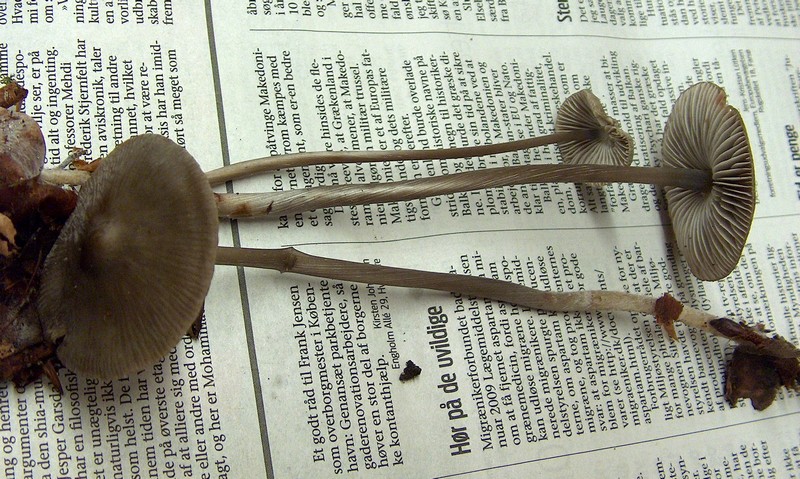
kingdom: Fungi
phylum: Basidiomycota
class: Agaricomycetes
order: Agaricales
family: Mycenaceae
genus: Mycena
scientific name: Mycena polygramma
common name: mangestribet huesvamp
